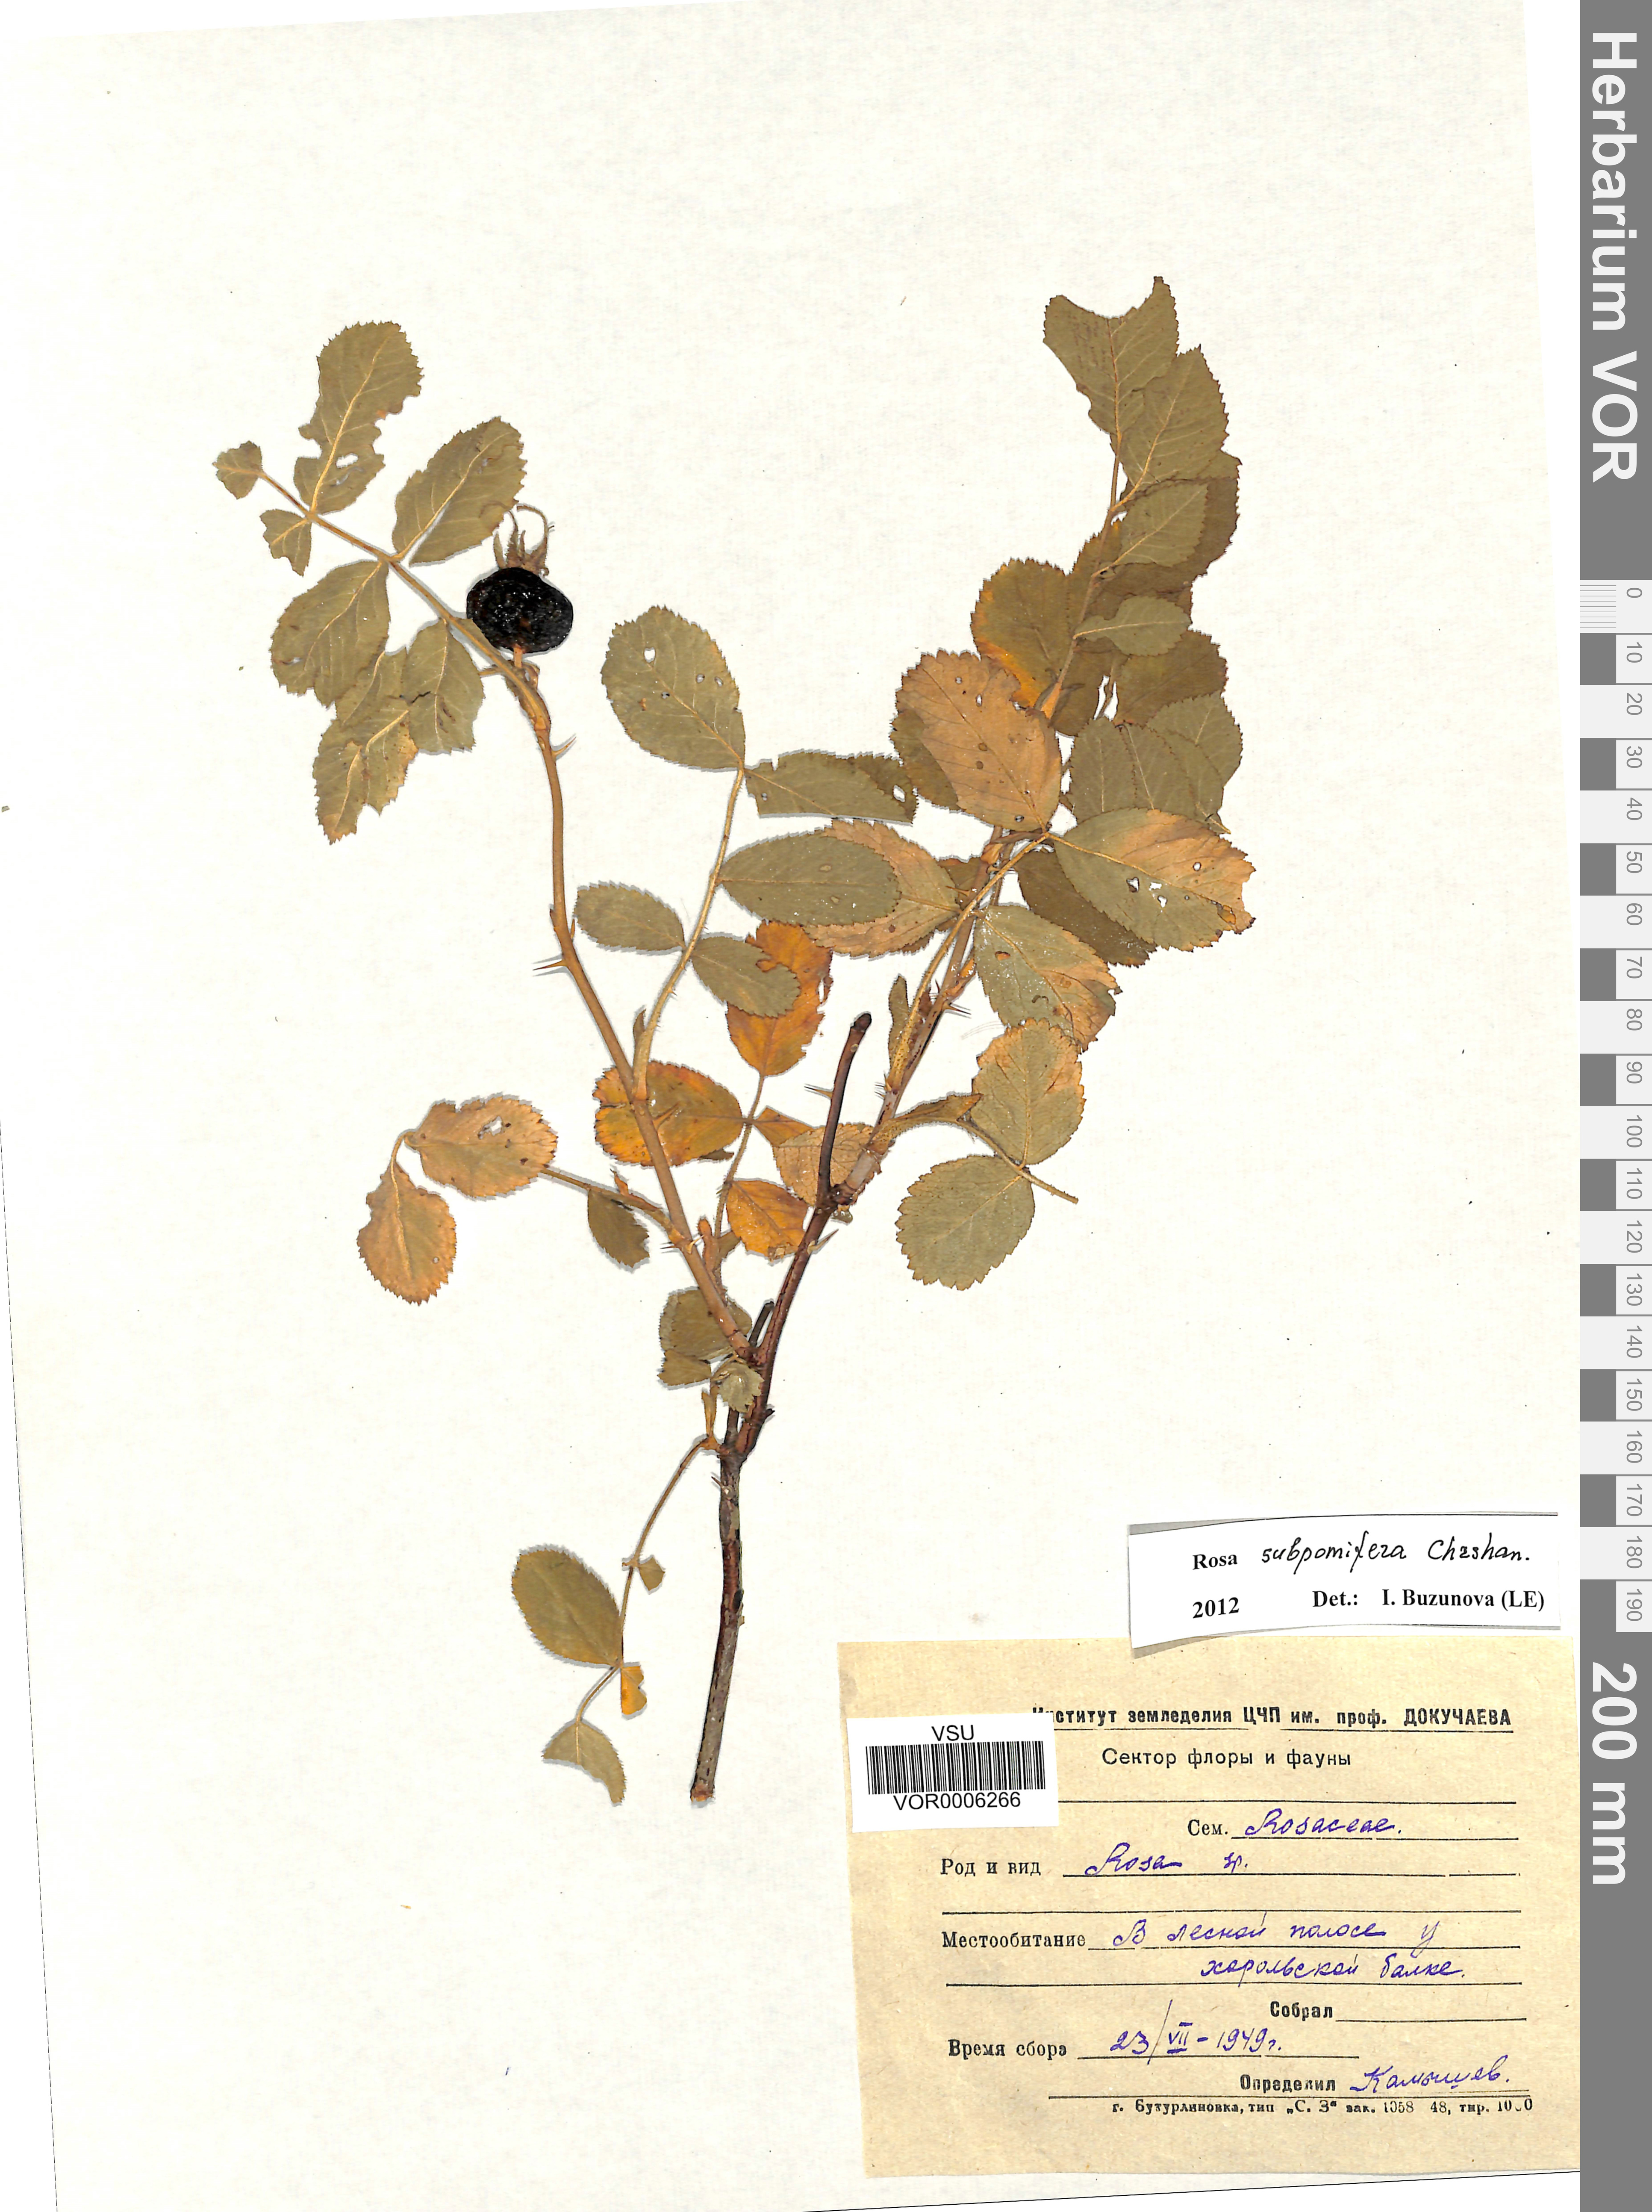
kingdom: Plantae
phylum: Tracheophyta
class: Magnoliopsida
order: Rosales
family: Rosaceae
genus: Rosa
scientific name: Rosa subpomifera
